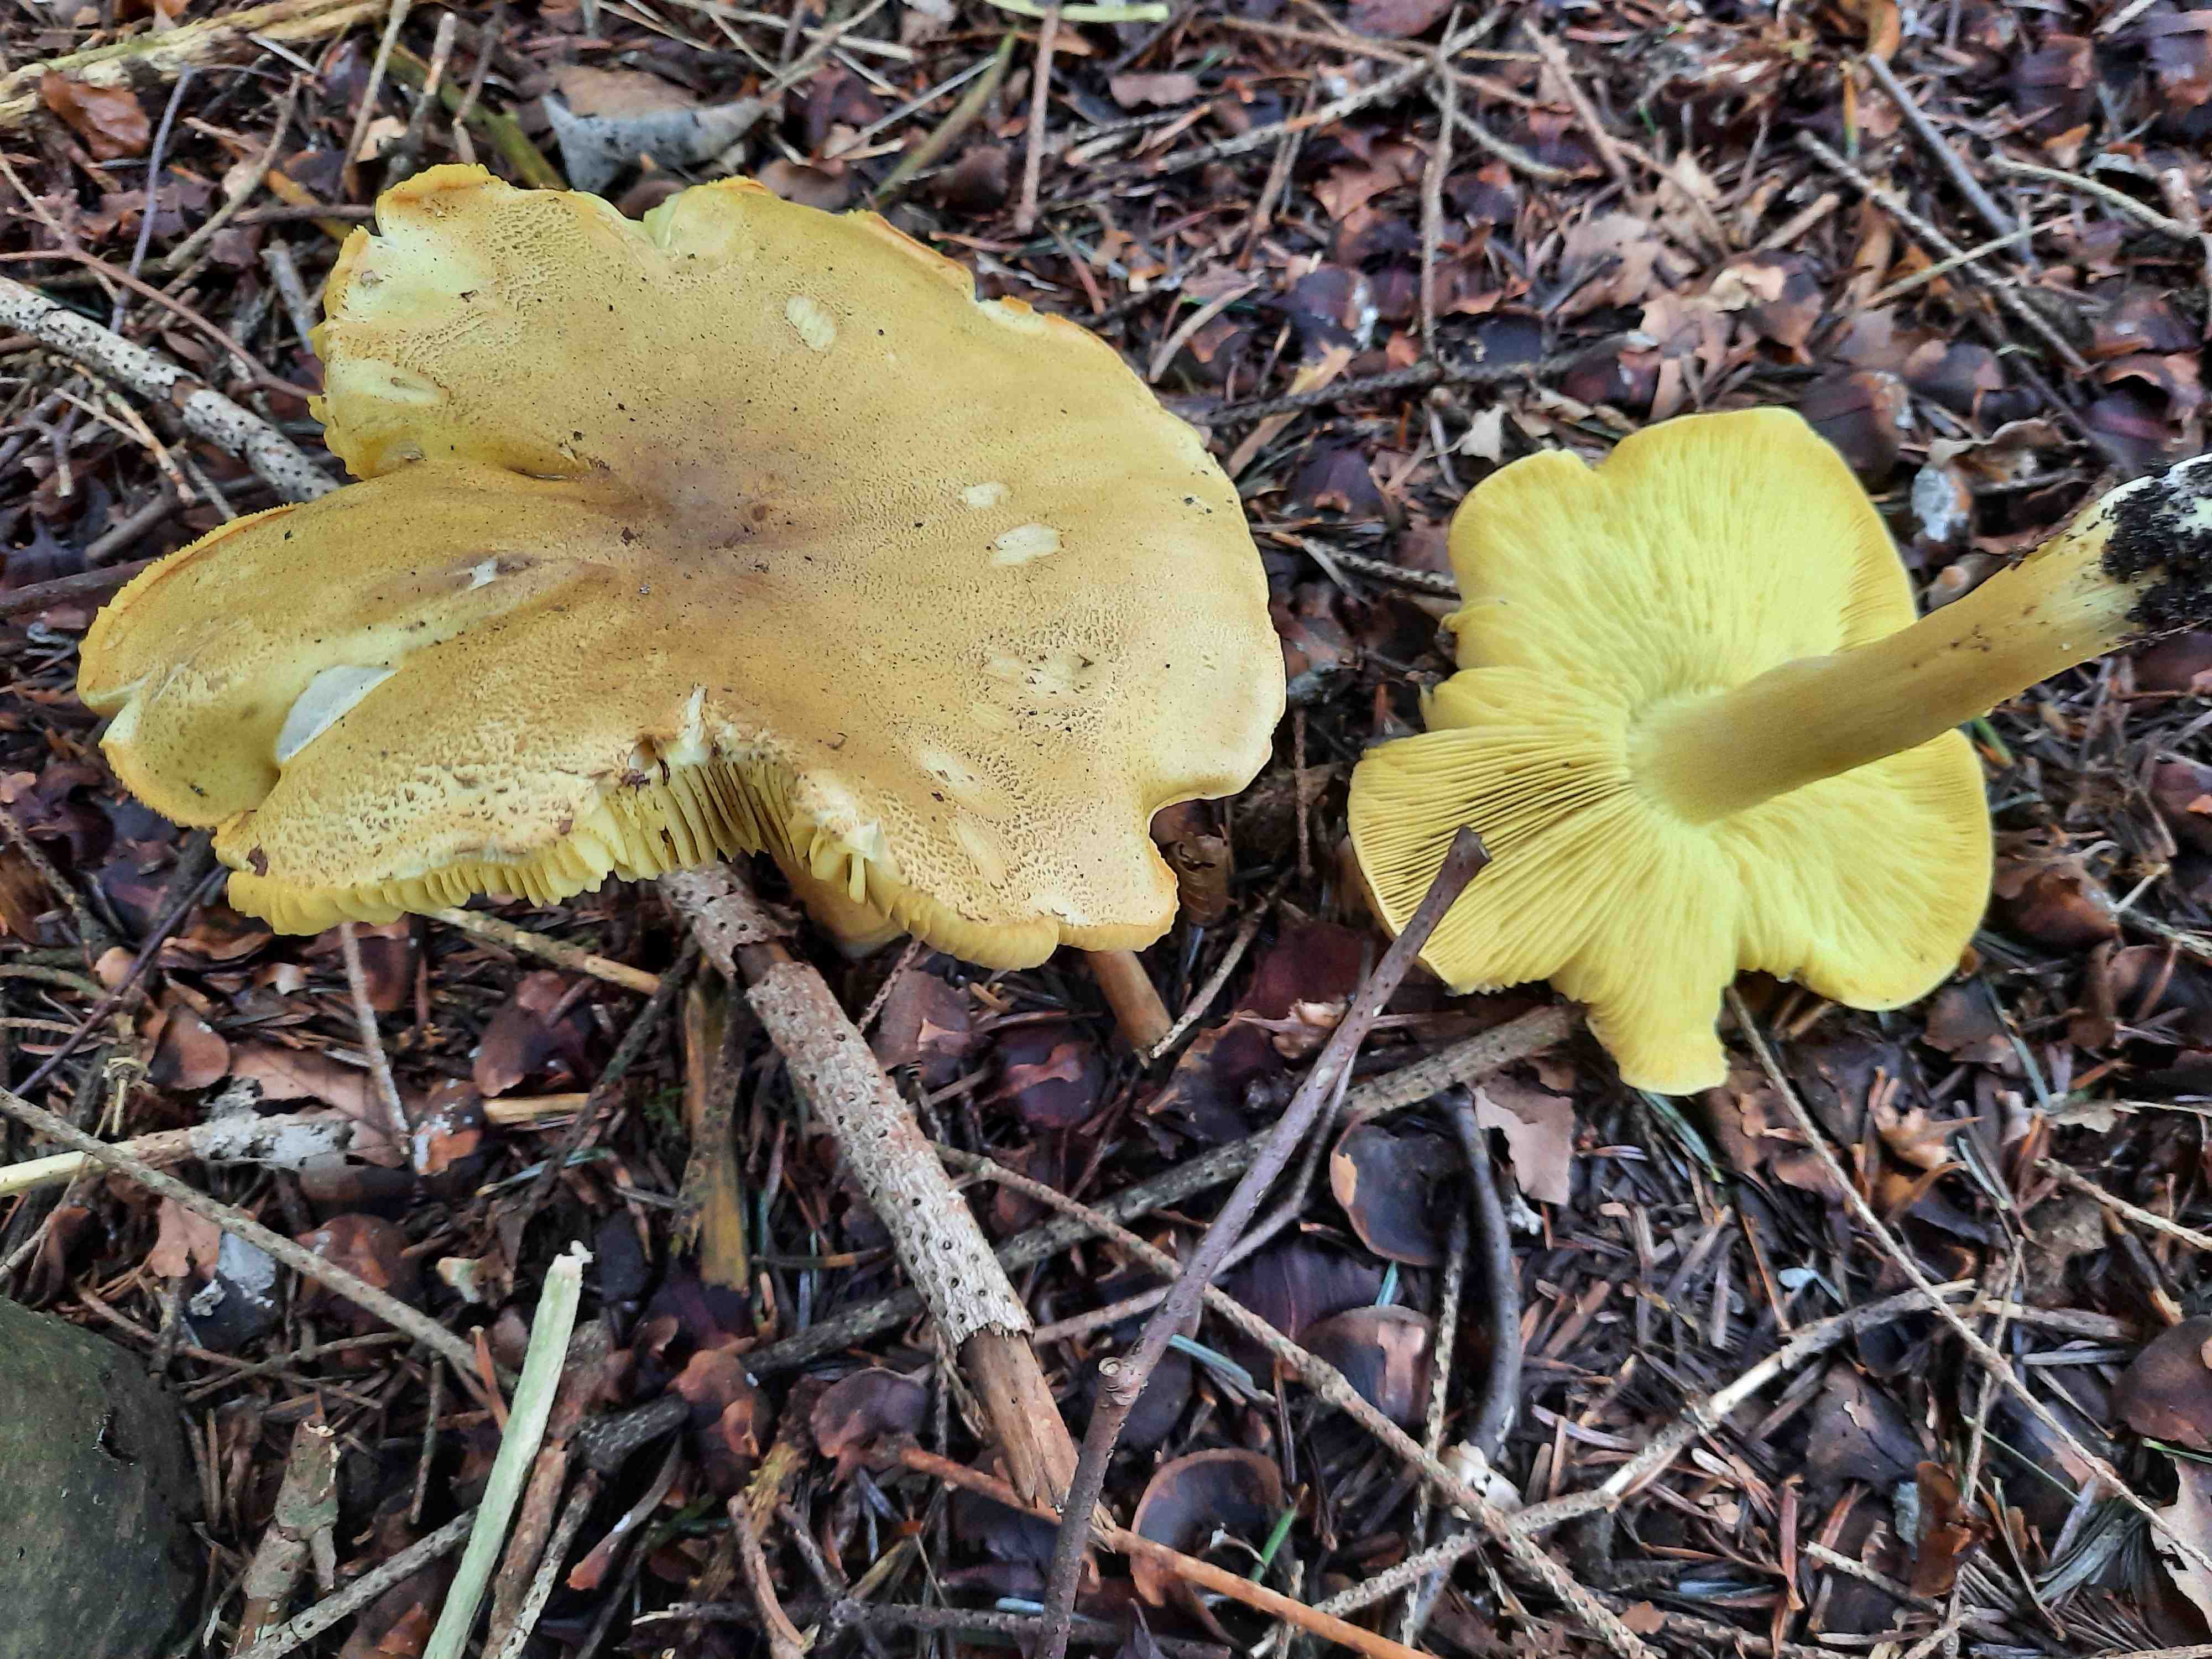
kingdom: Fungi
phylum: Basidiomycota
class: Agaricomycetes
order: Agaricales
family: Tricholomataceae
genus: Tricholoma
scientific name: Tricholoma equestre
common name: ægte ridderhat
